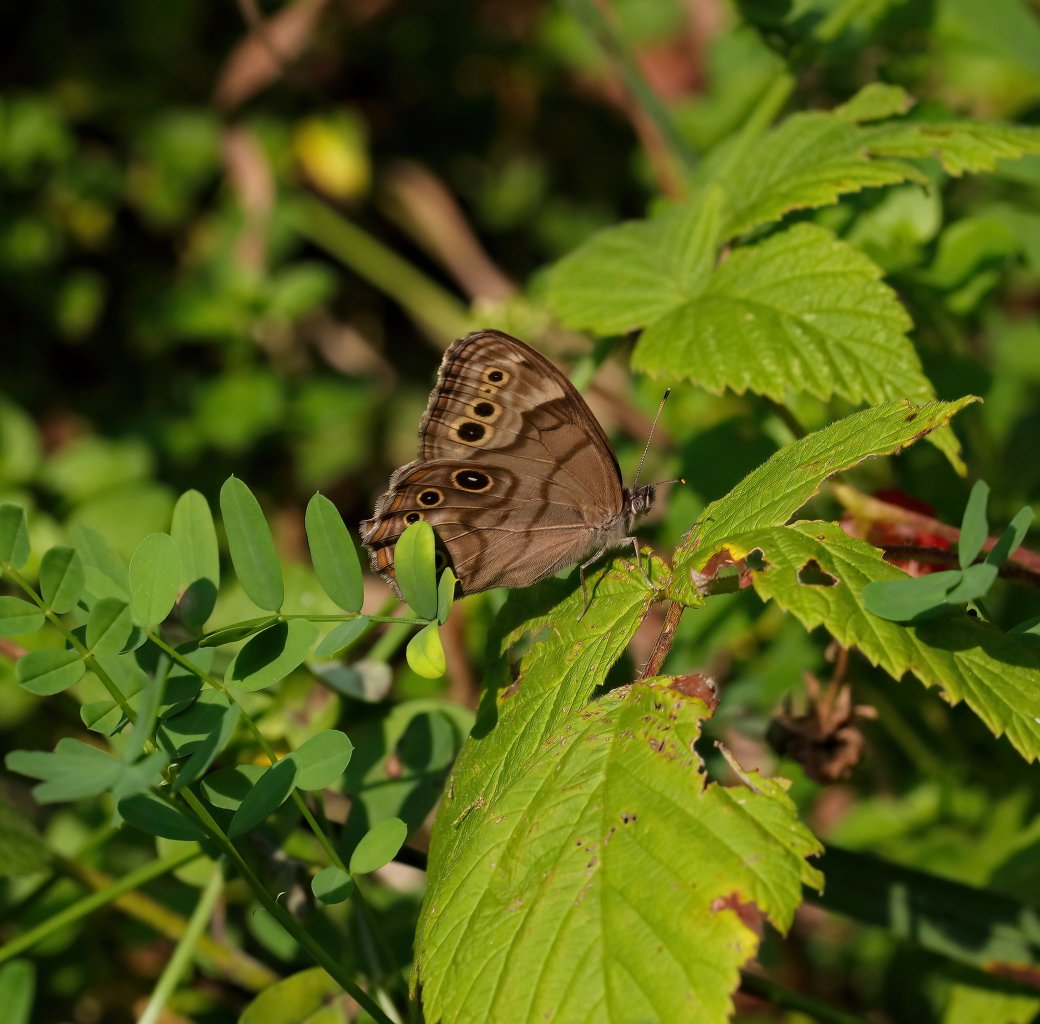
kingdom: Animalia
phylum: Arthropoda
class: Insecta
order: Lepidoptera
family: Nymphalidae
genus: Lethe
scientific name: Lethe anthedon
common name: Northern Pearly-Eye
